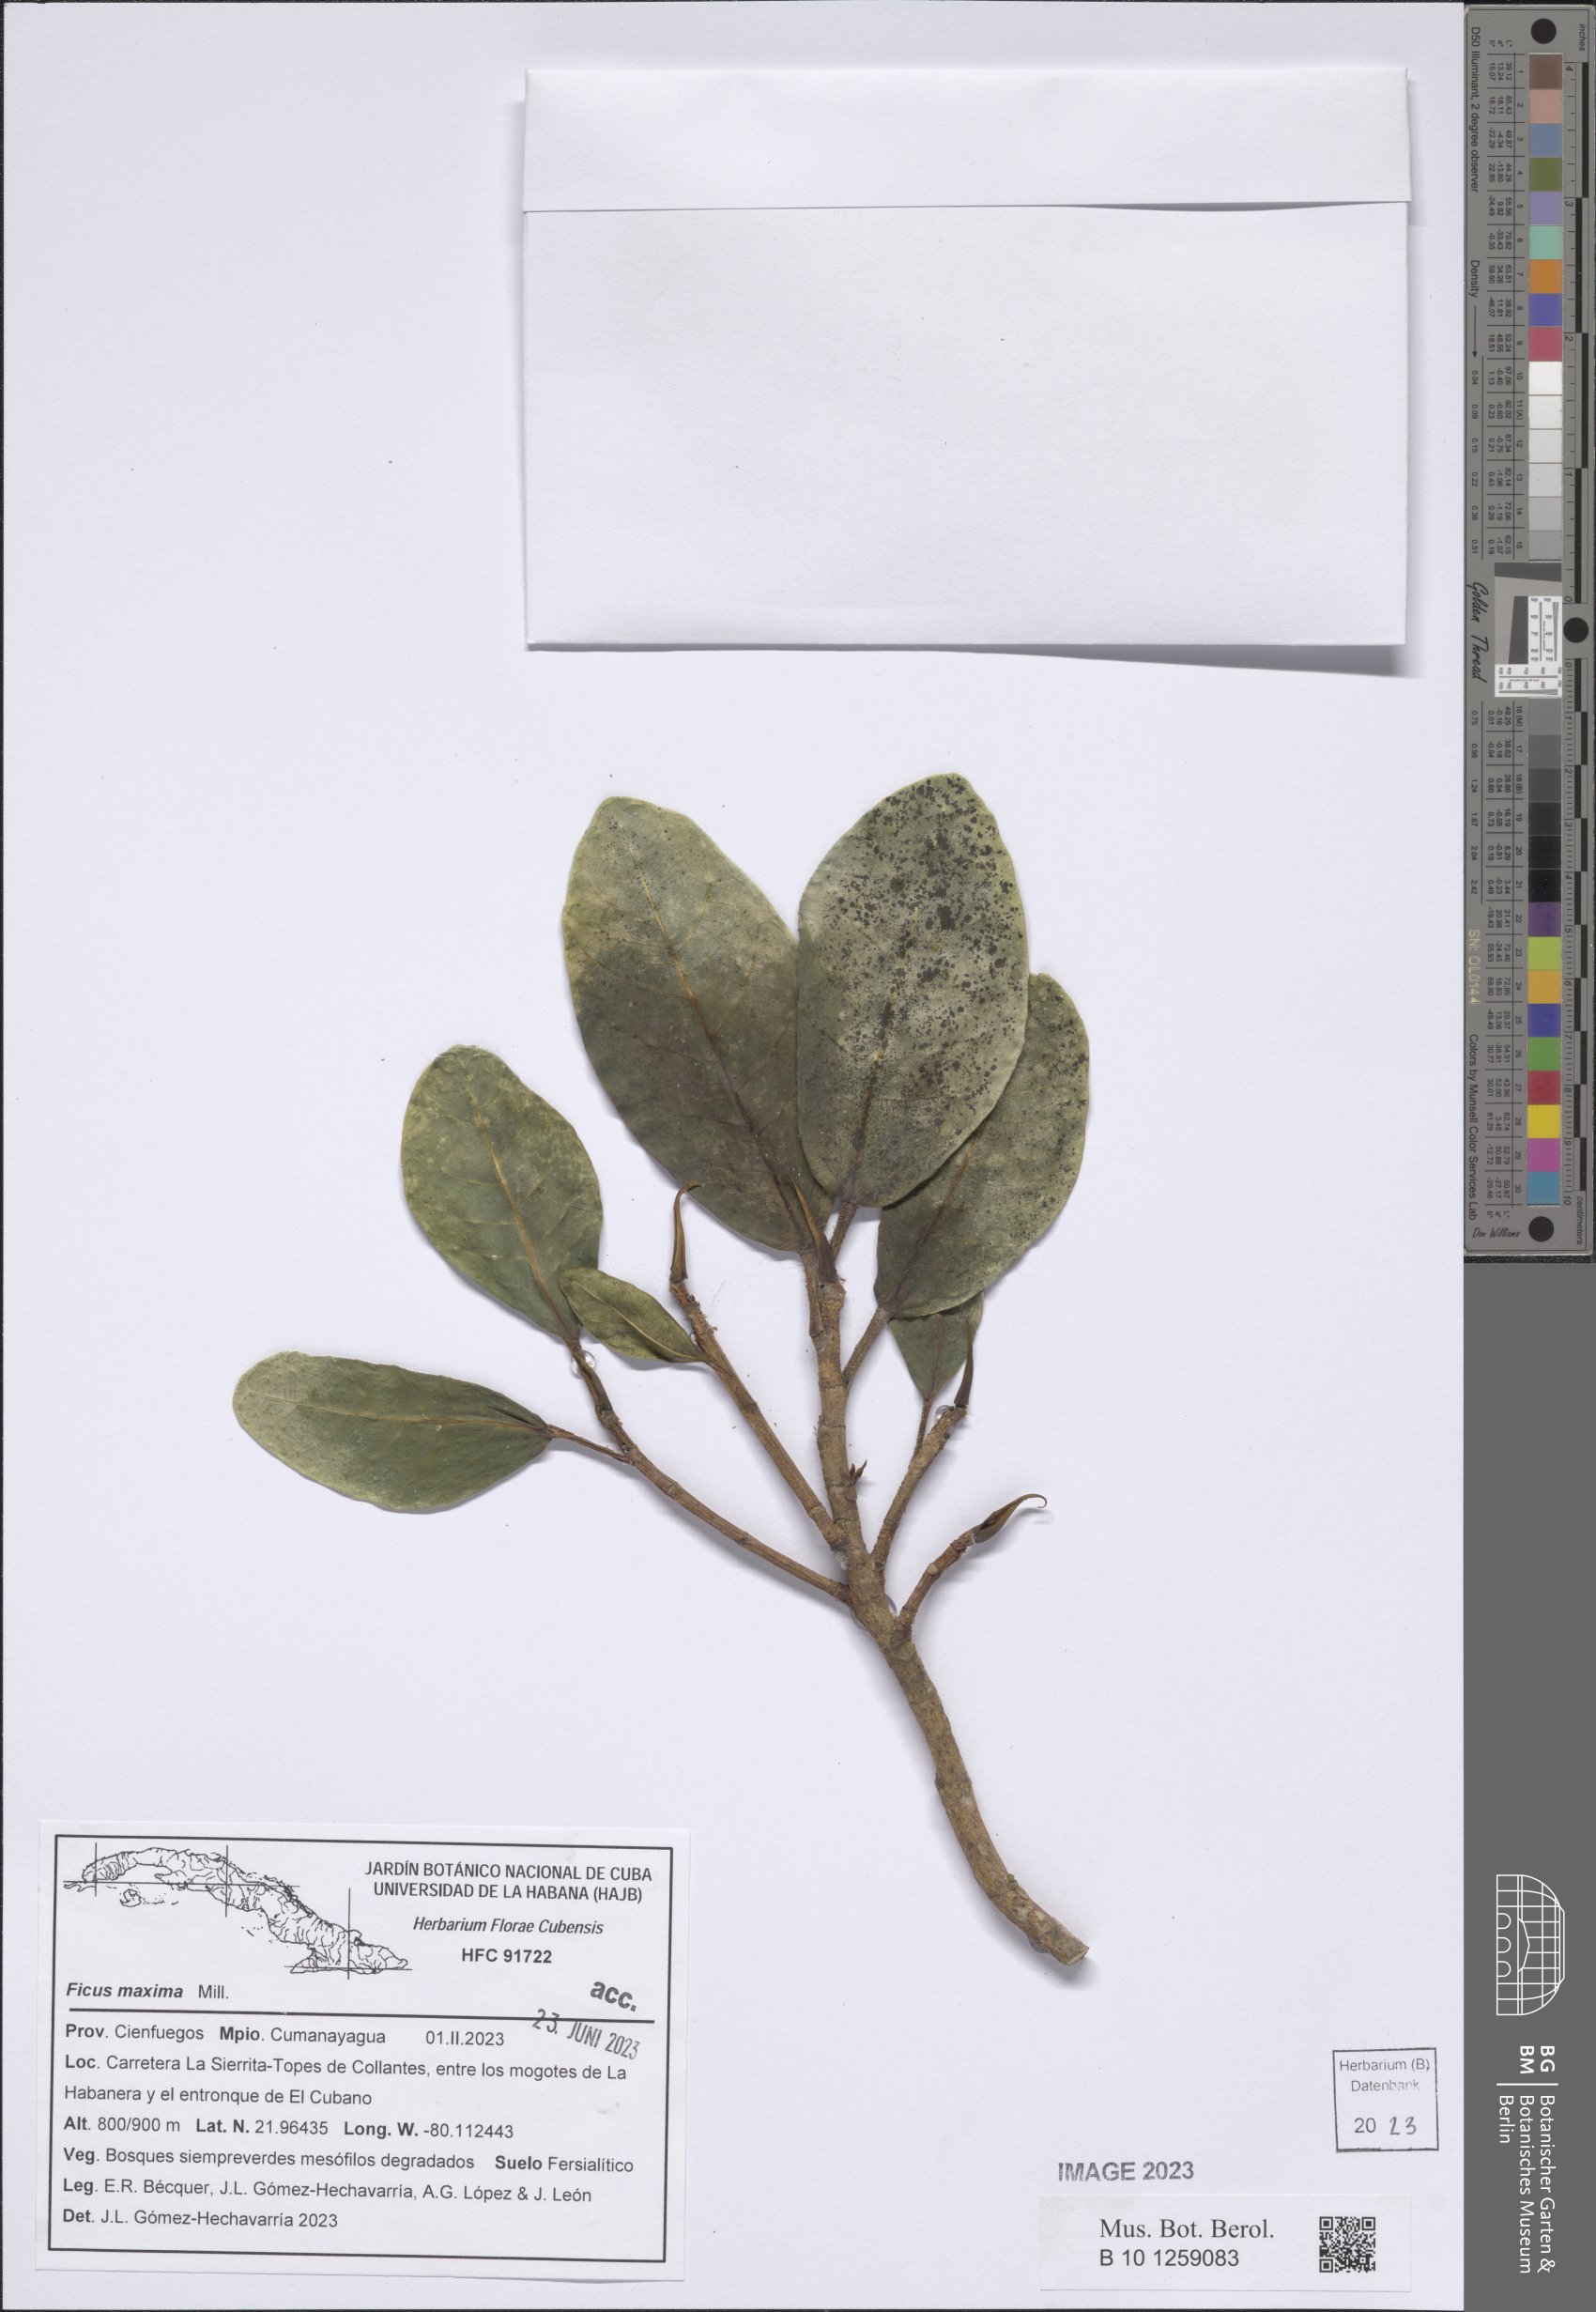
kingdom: Plantae
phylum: Tracheophyta
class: Magnoliopsida
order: Rosales
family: Moraceae
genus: Ficus
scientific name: Ficus maxima
